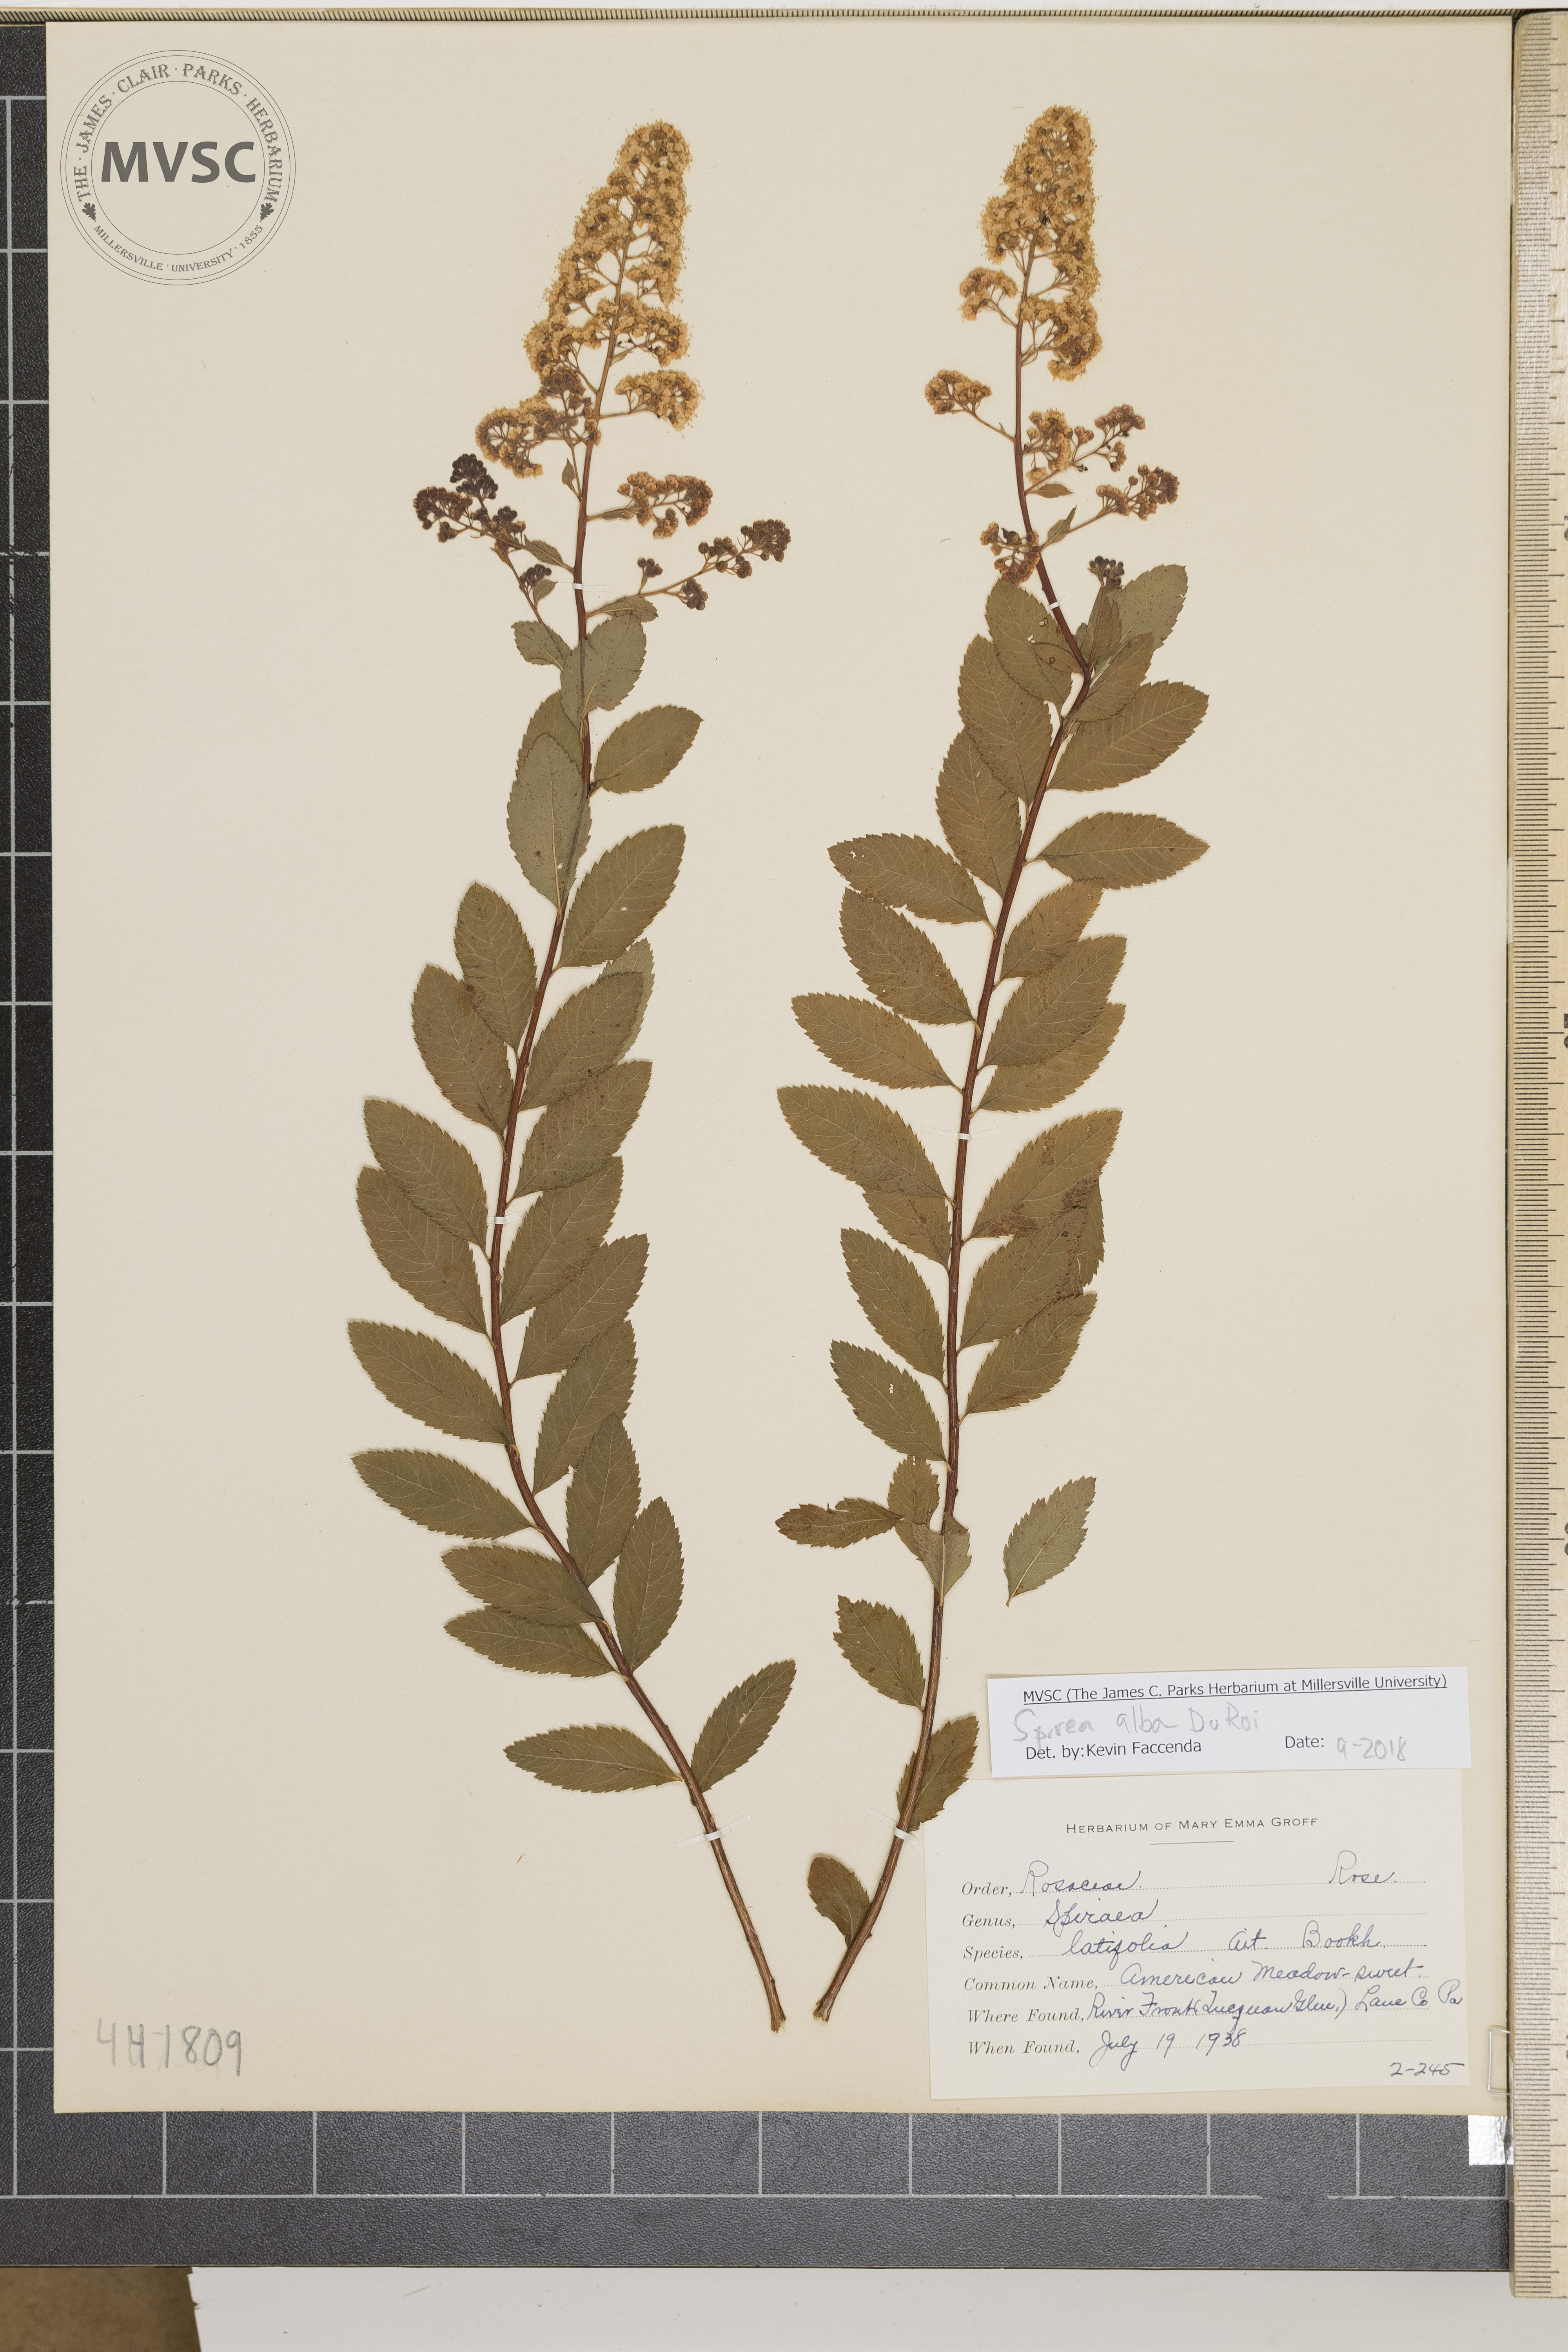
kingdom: Plantae
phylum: Tracheophyta
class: Magnoliopsida
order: Rosales
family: Rosaceae
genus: Spiraea
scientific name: Spiraea alba
